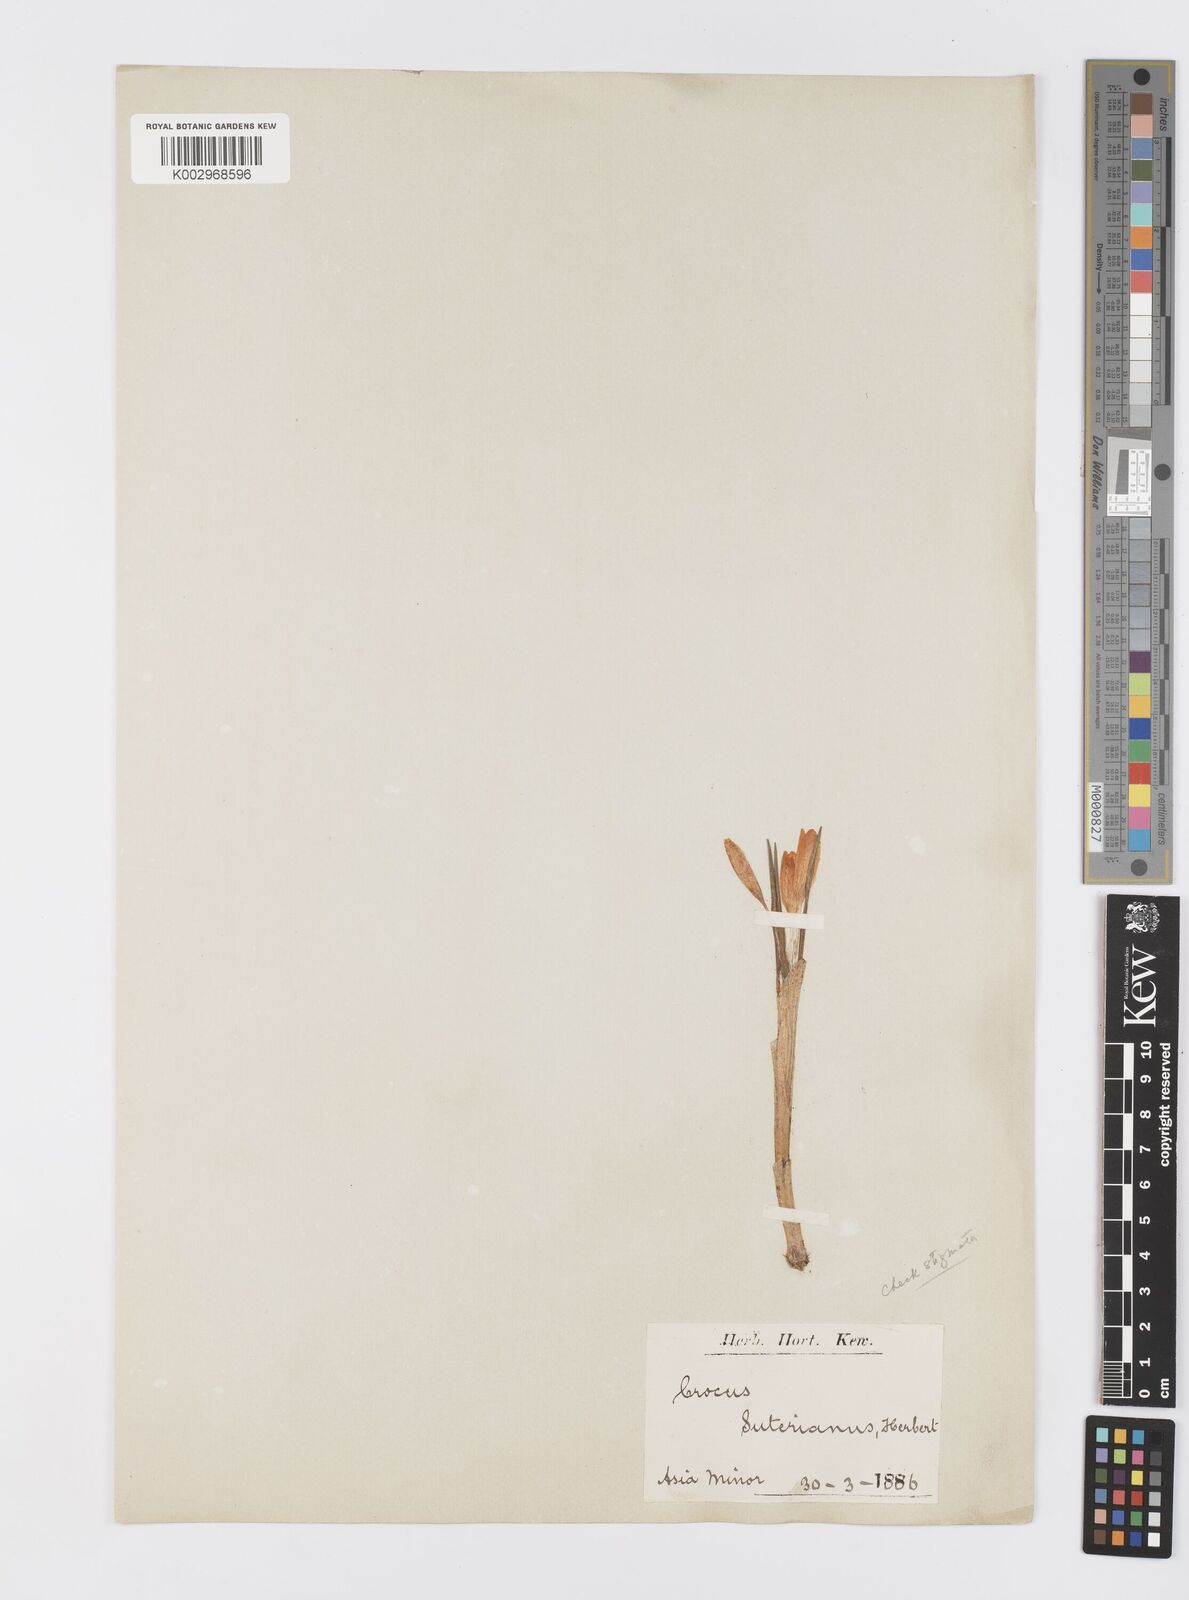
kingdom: Plantae
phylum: Tracheophyta
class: Liliopsida
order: Asparagales
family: Iridaceae
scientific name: Iridaceae
